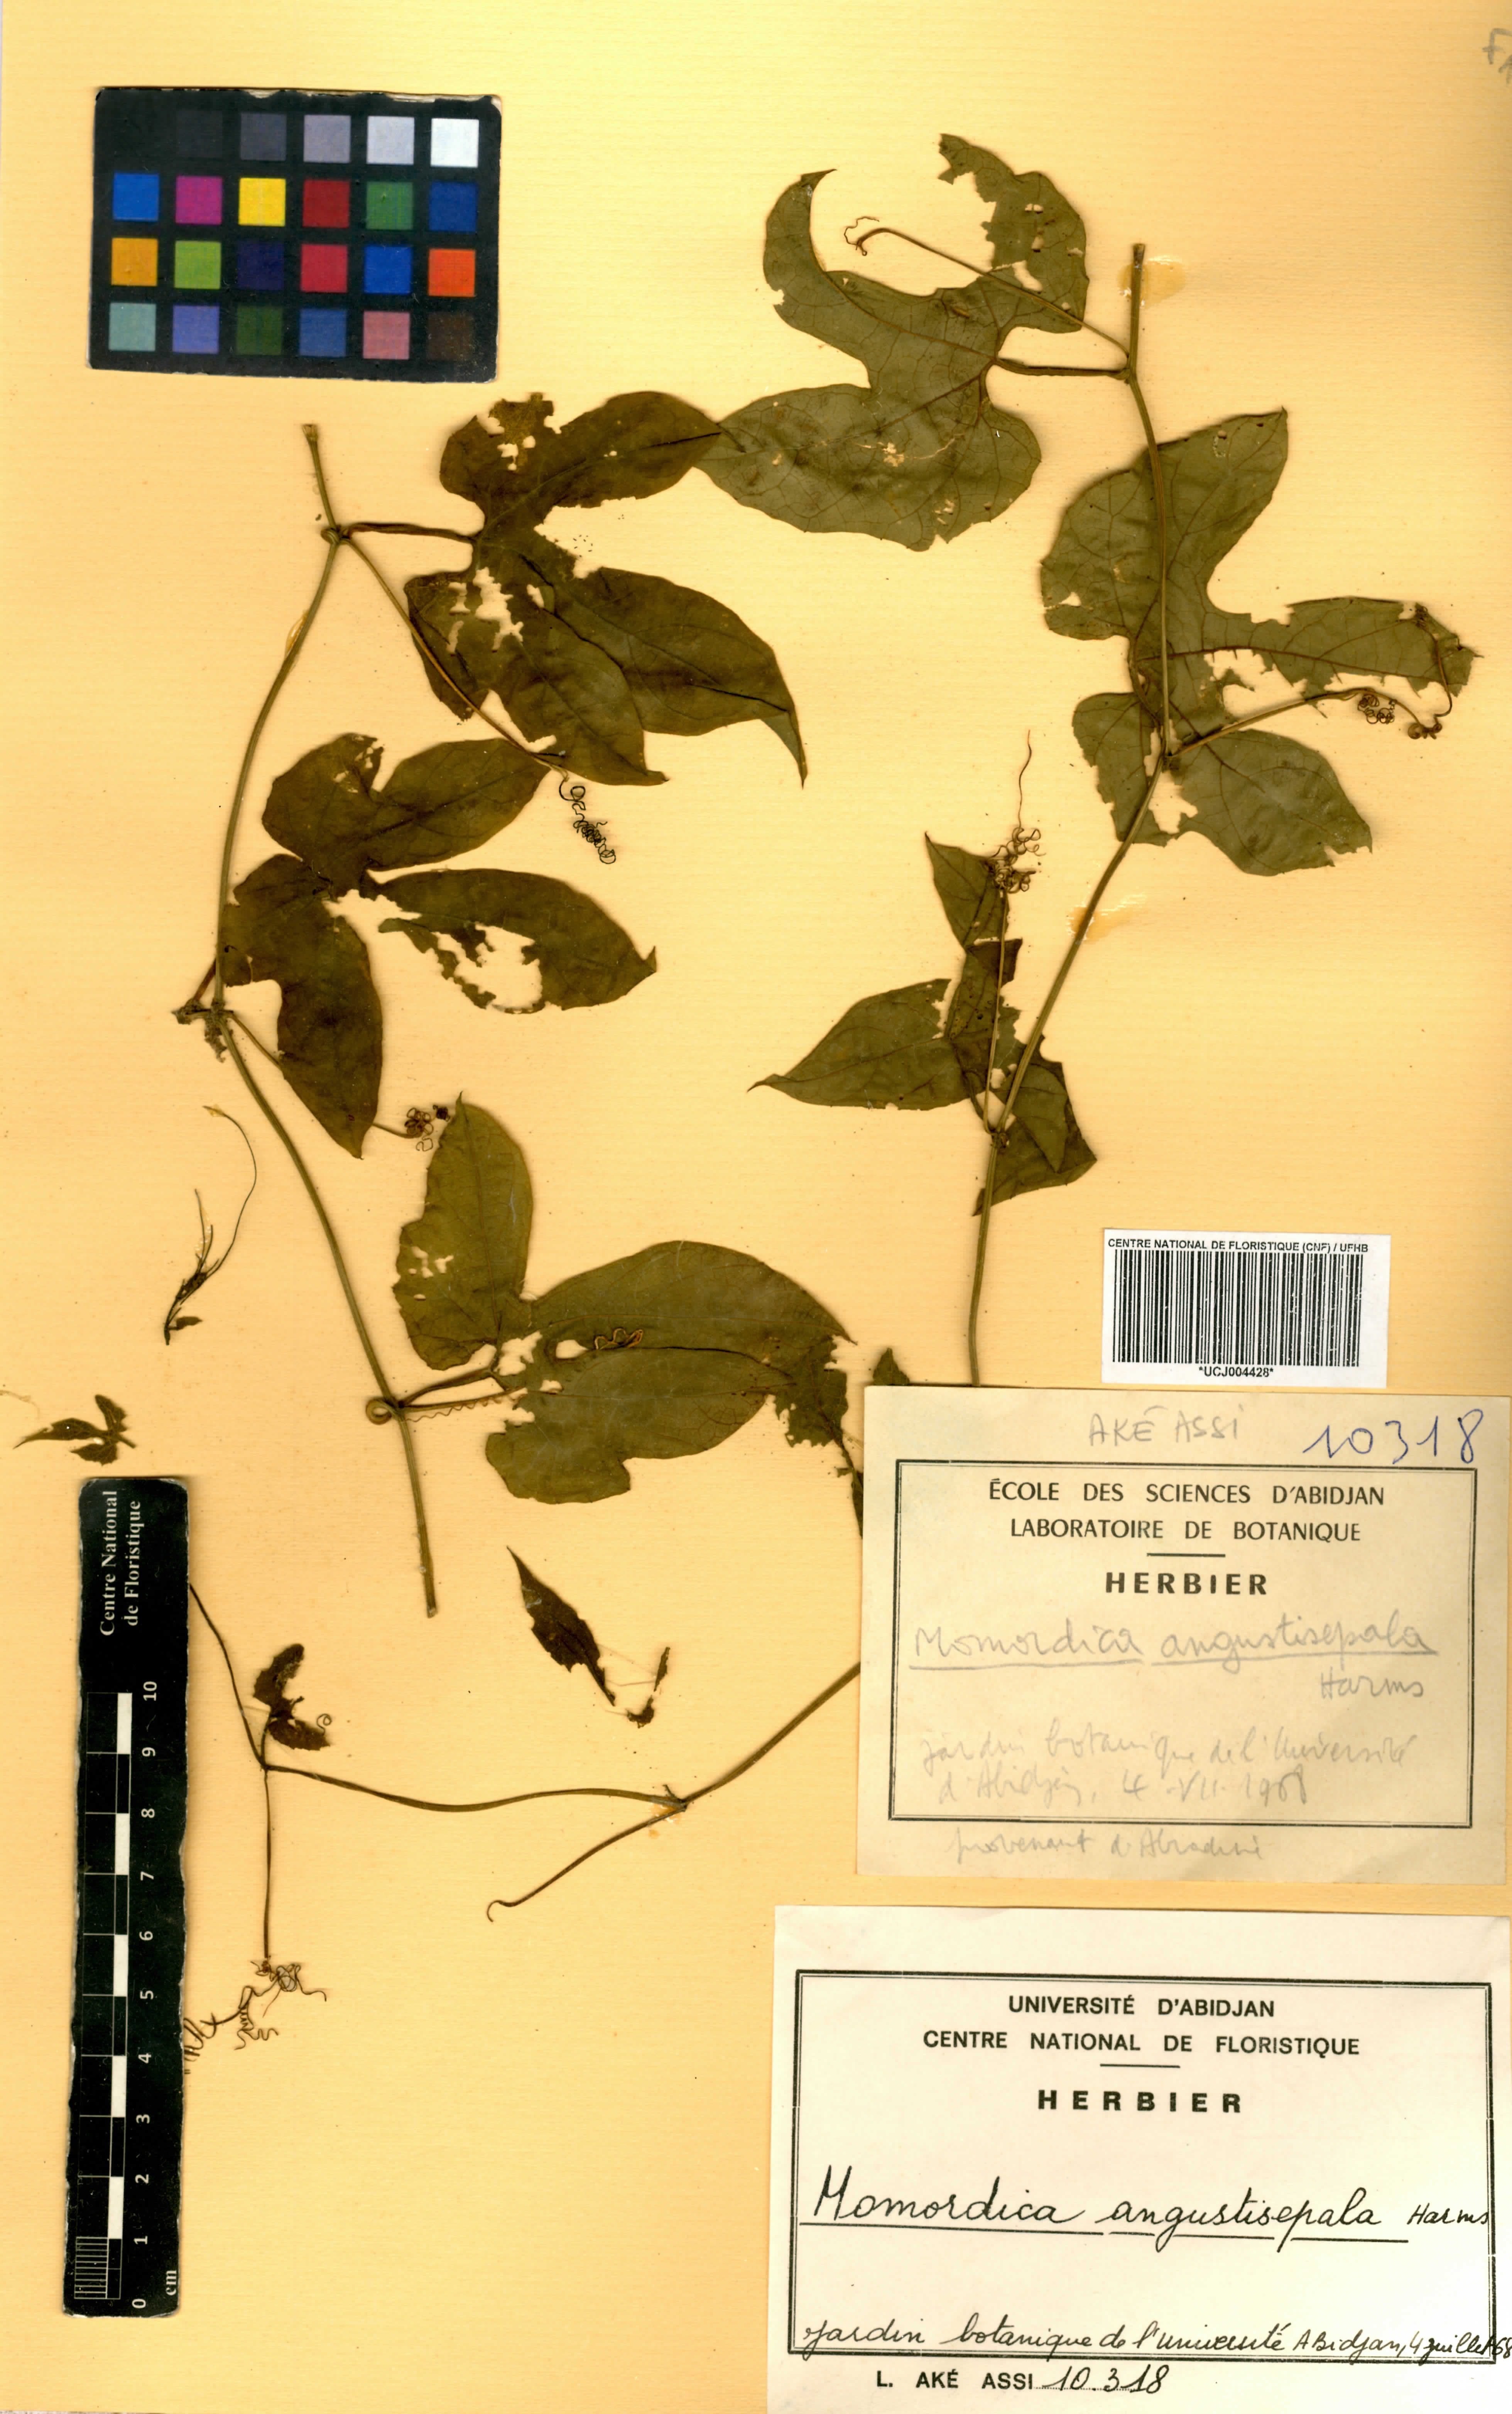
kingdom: Plantae
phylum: Tracheophyta
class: Magnoliopsida
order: Cucurbitales
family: Cucurbitaceae
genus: Momordica
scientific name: Momordica angustisepala
